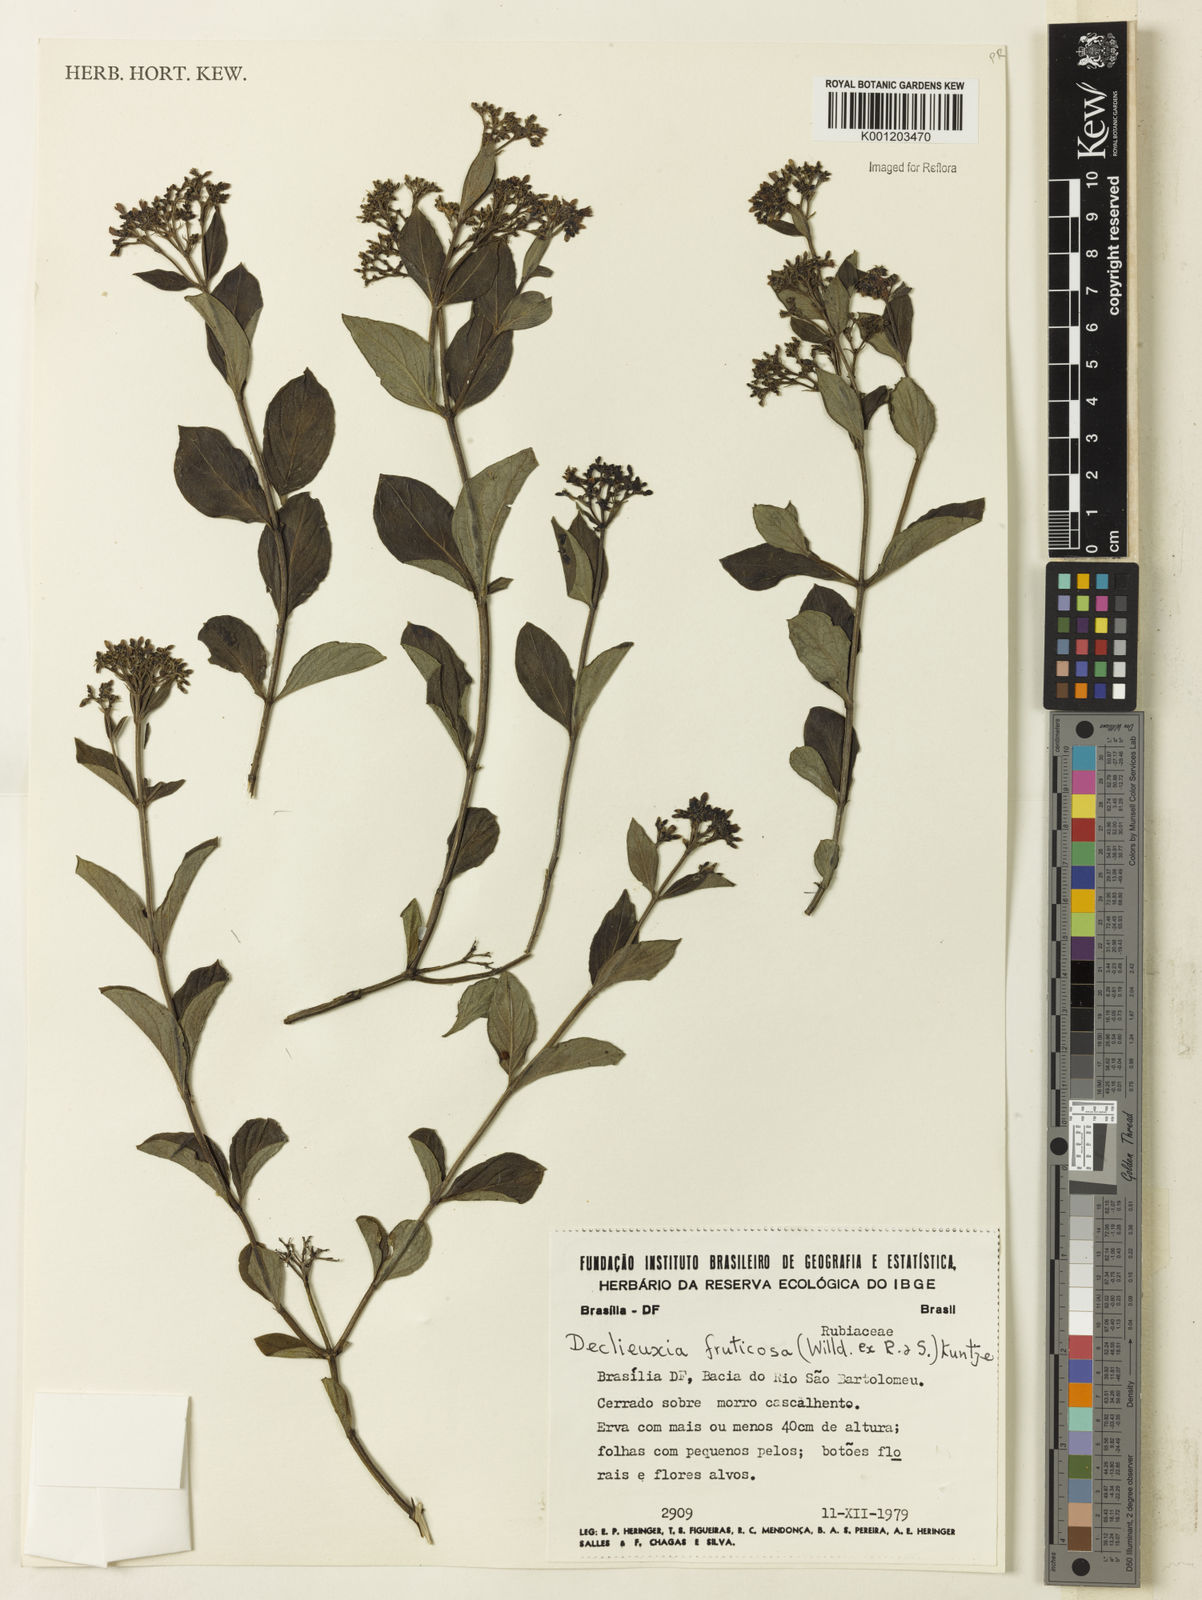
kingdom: Plantae
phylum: Tracheophyta
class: Magnoliopsida
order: Gentianales
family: Rubiaceae
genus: Declieuxia
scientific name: Declieuxia fruticosa
